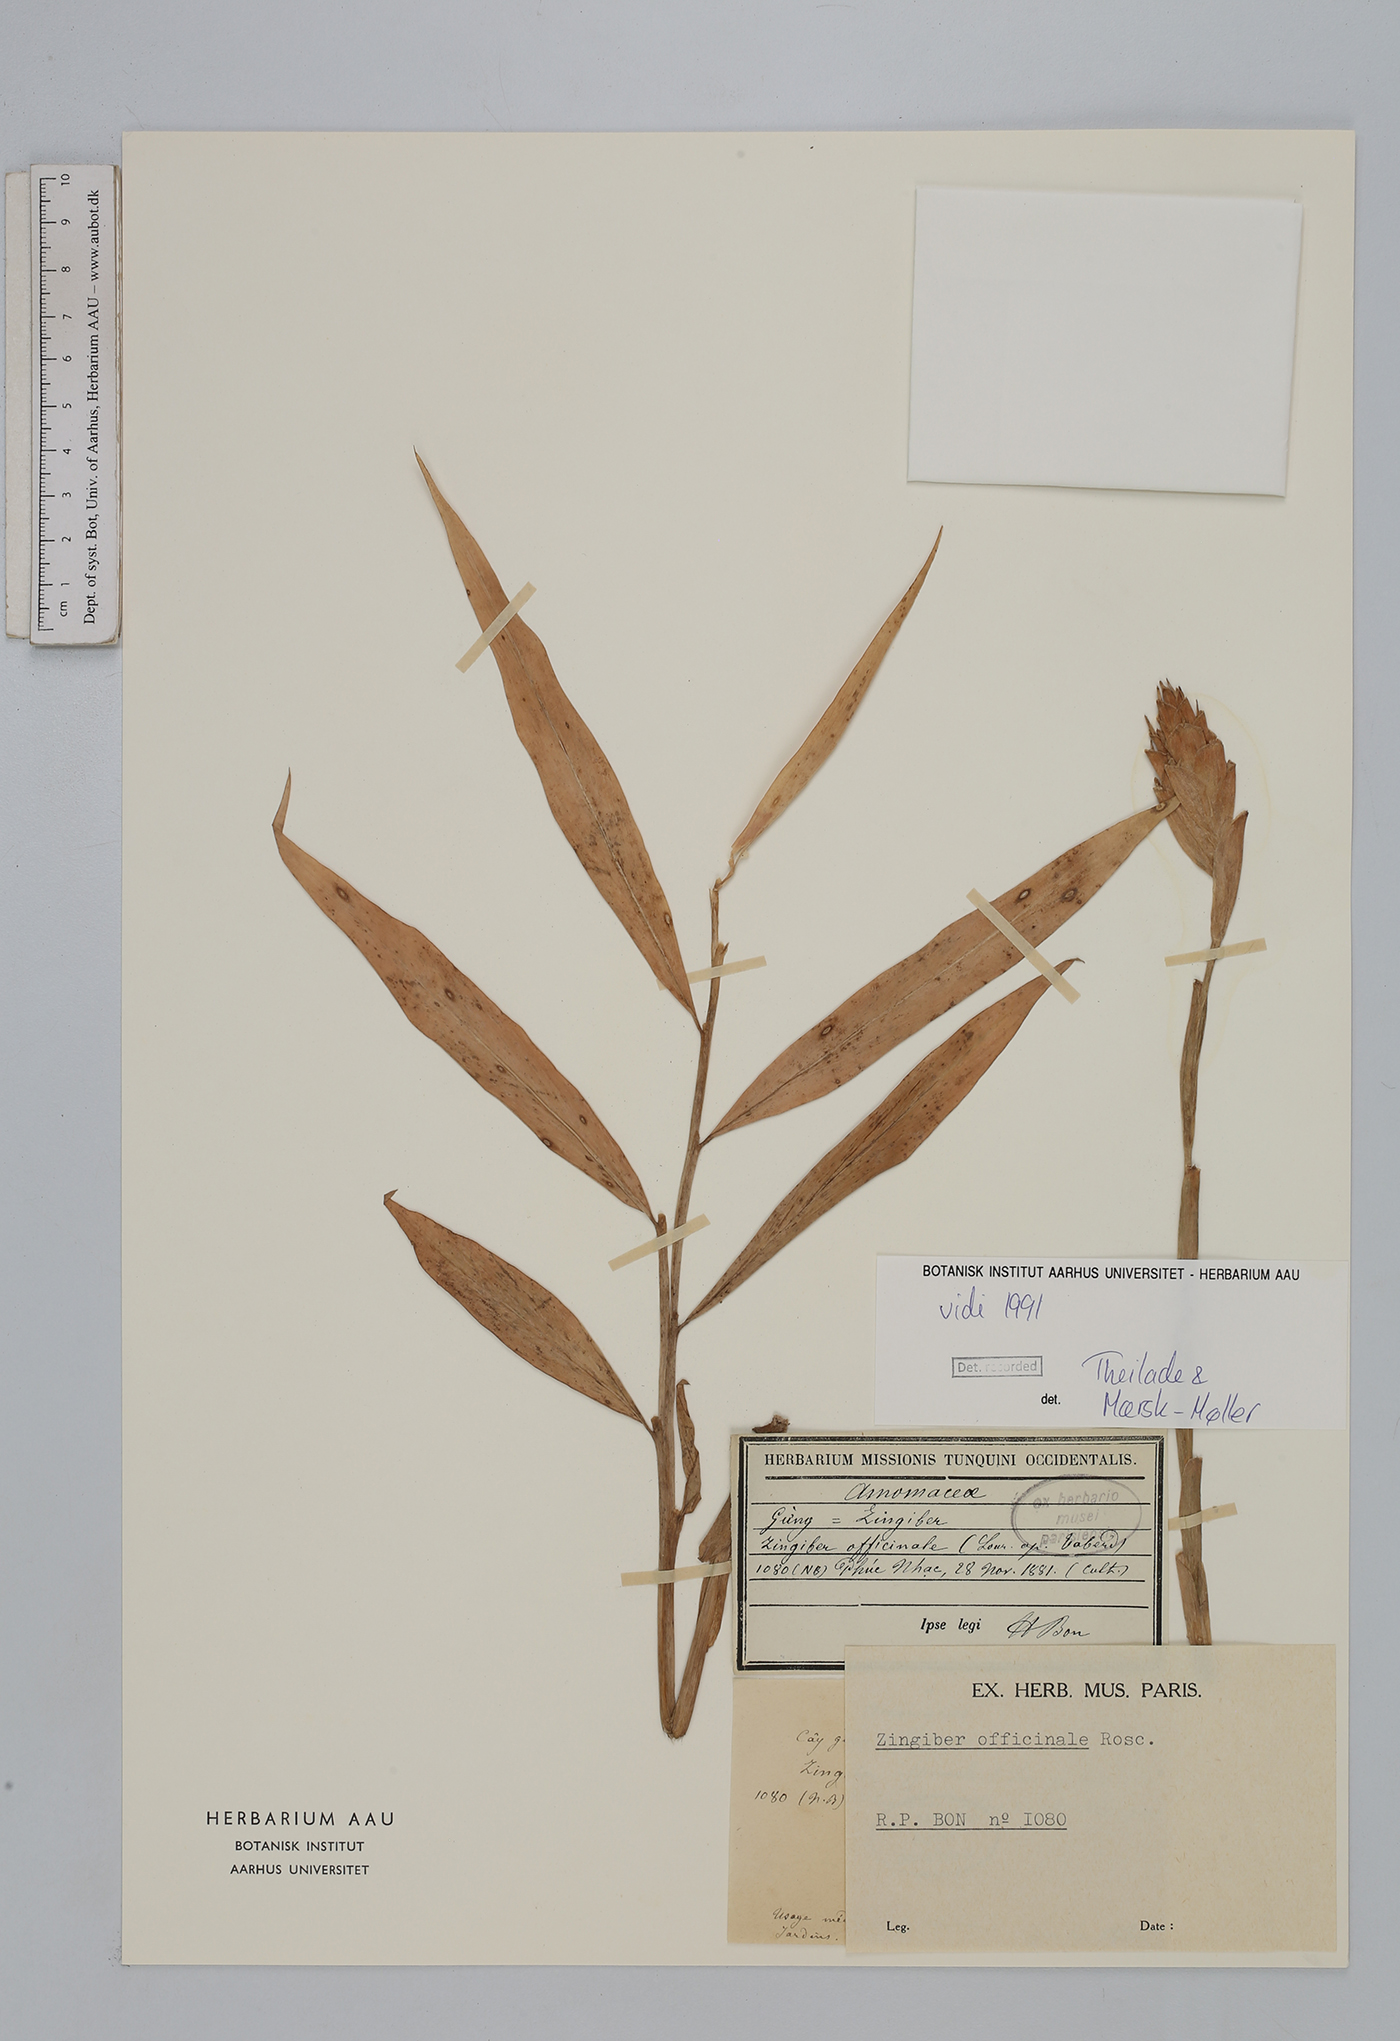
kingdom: Plantae
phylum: Tracheophyta
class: Liliopsida
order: Zingiberales
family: Zingiberaceae
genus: Zingiber
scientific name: Zingiber officinale
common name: Ginger
